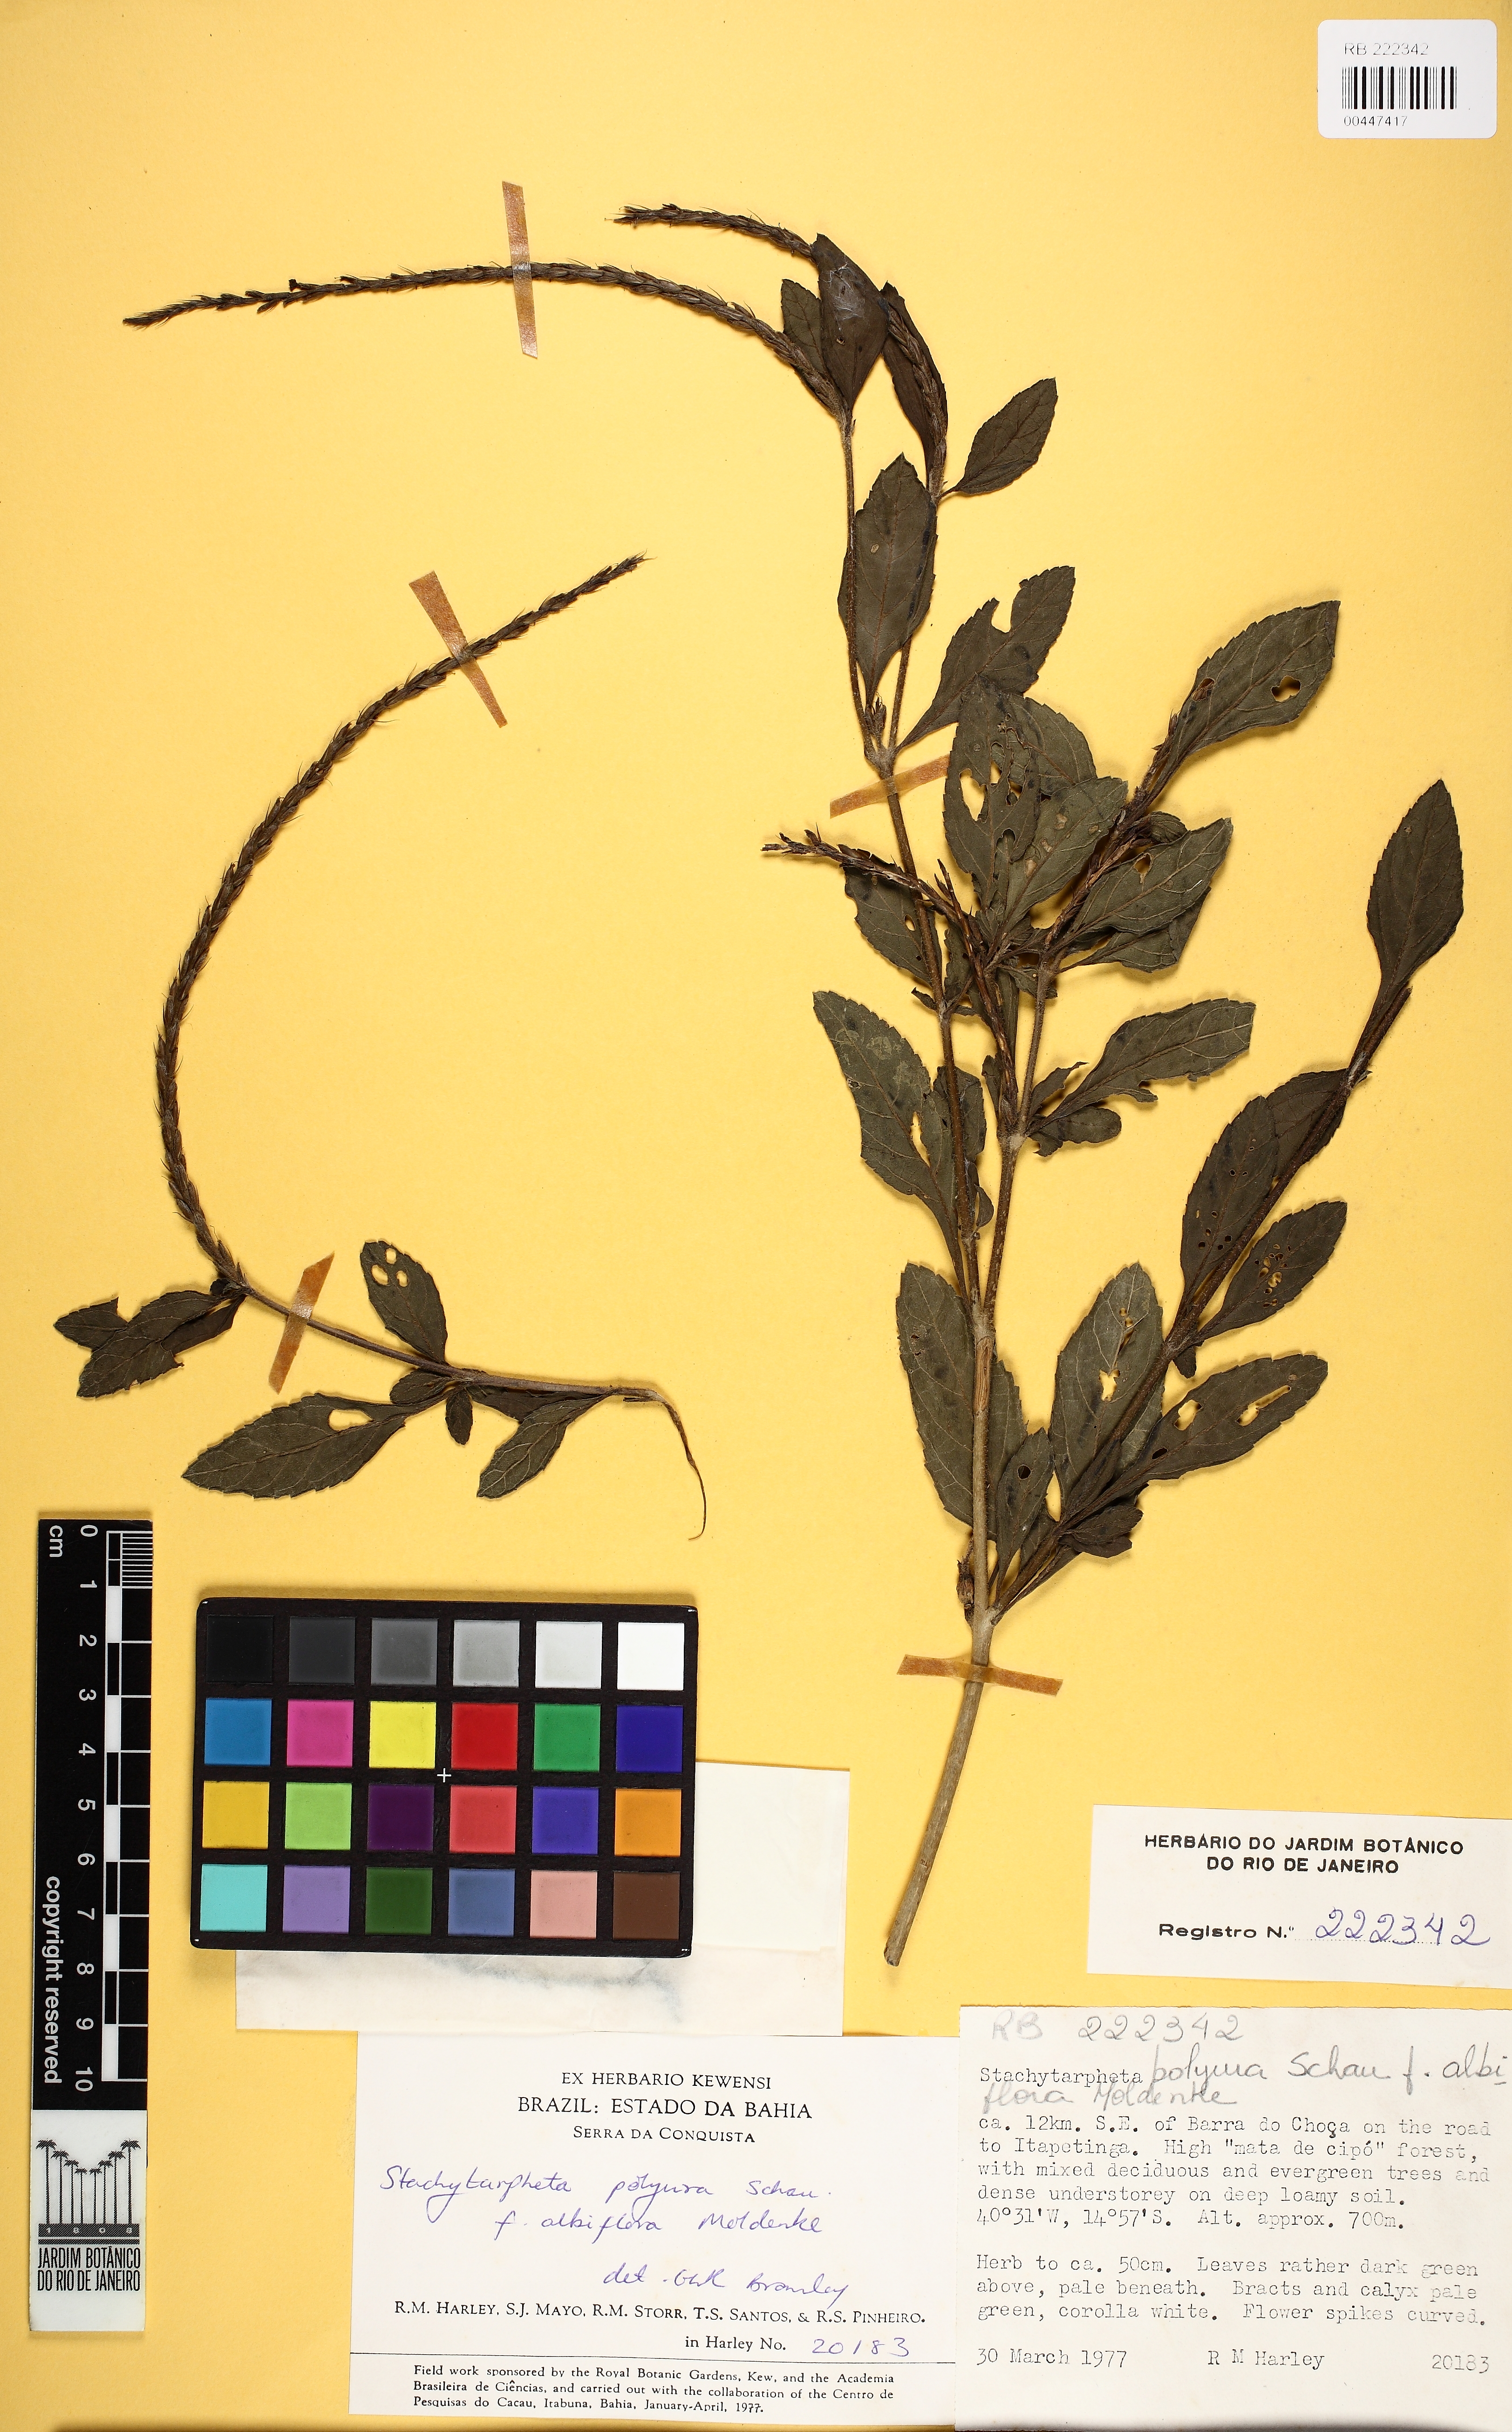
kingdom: Plantae
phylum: Tracheophyta
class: Magnoliopsida
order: Lamiales
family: Verbenaceae
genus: Stachytarpheta
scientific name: Stachytarpheta cayennensis
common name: Cayenne porterweed
